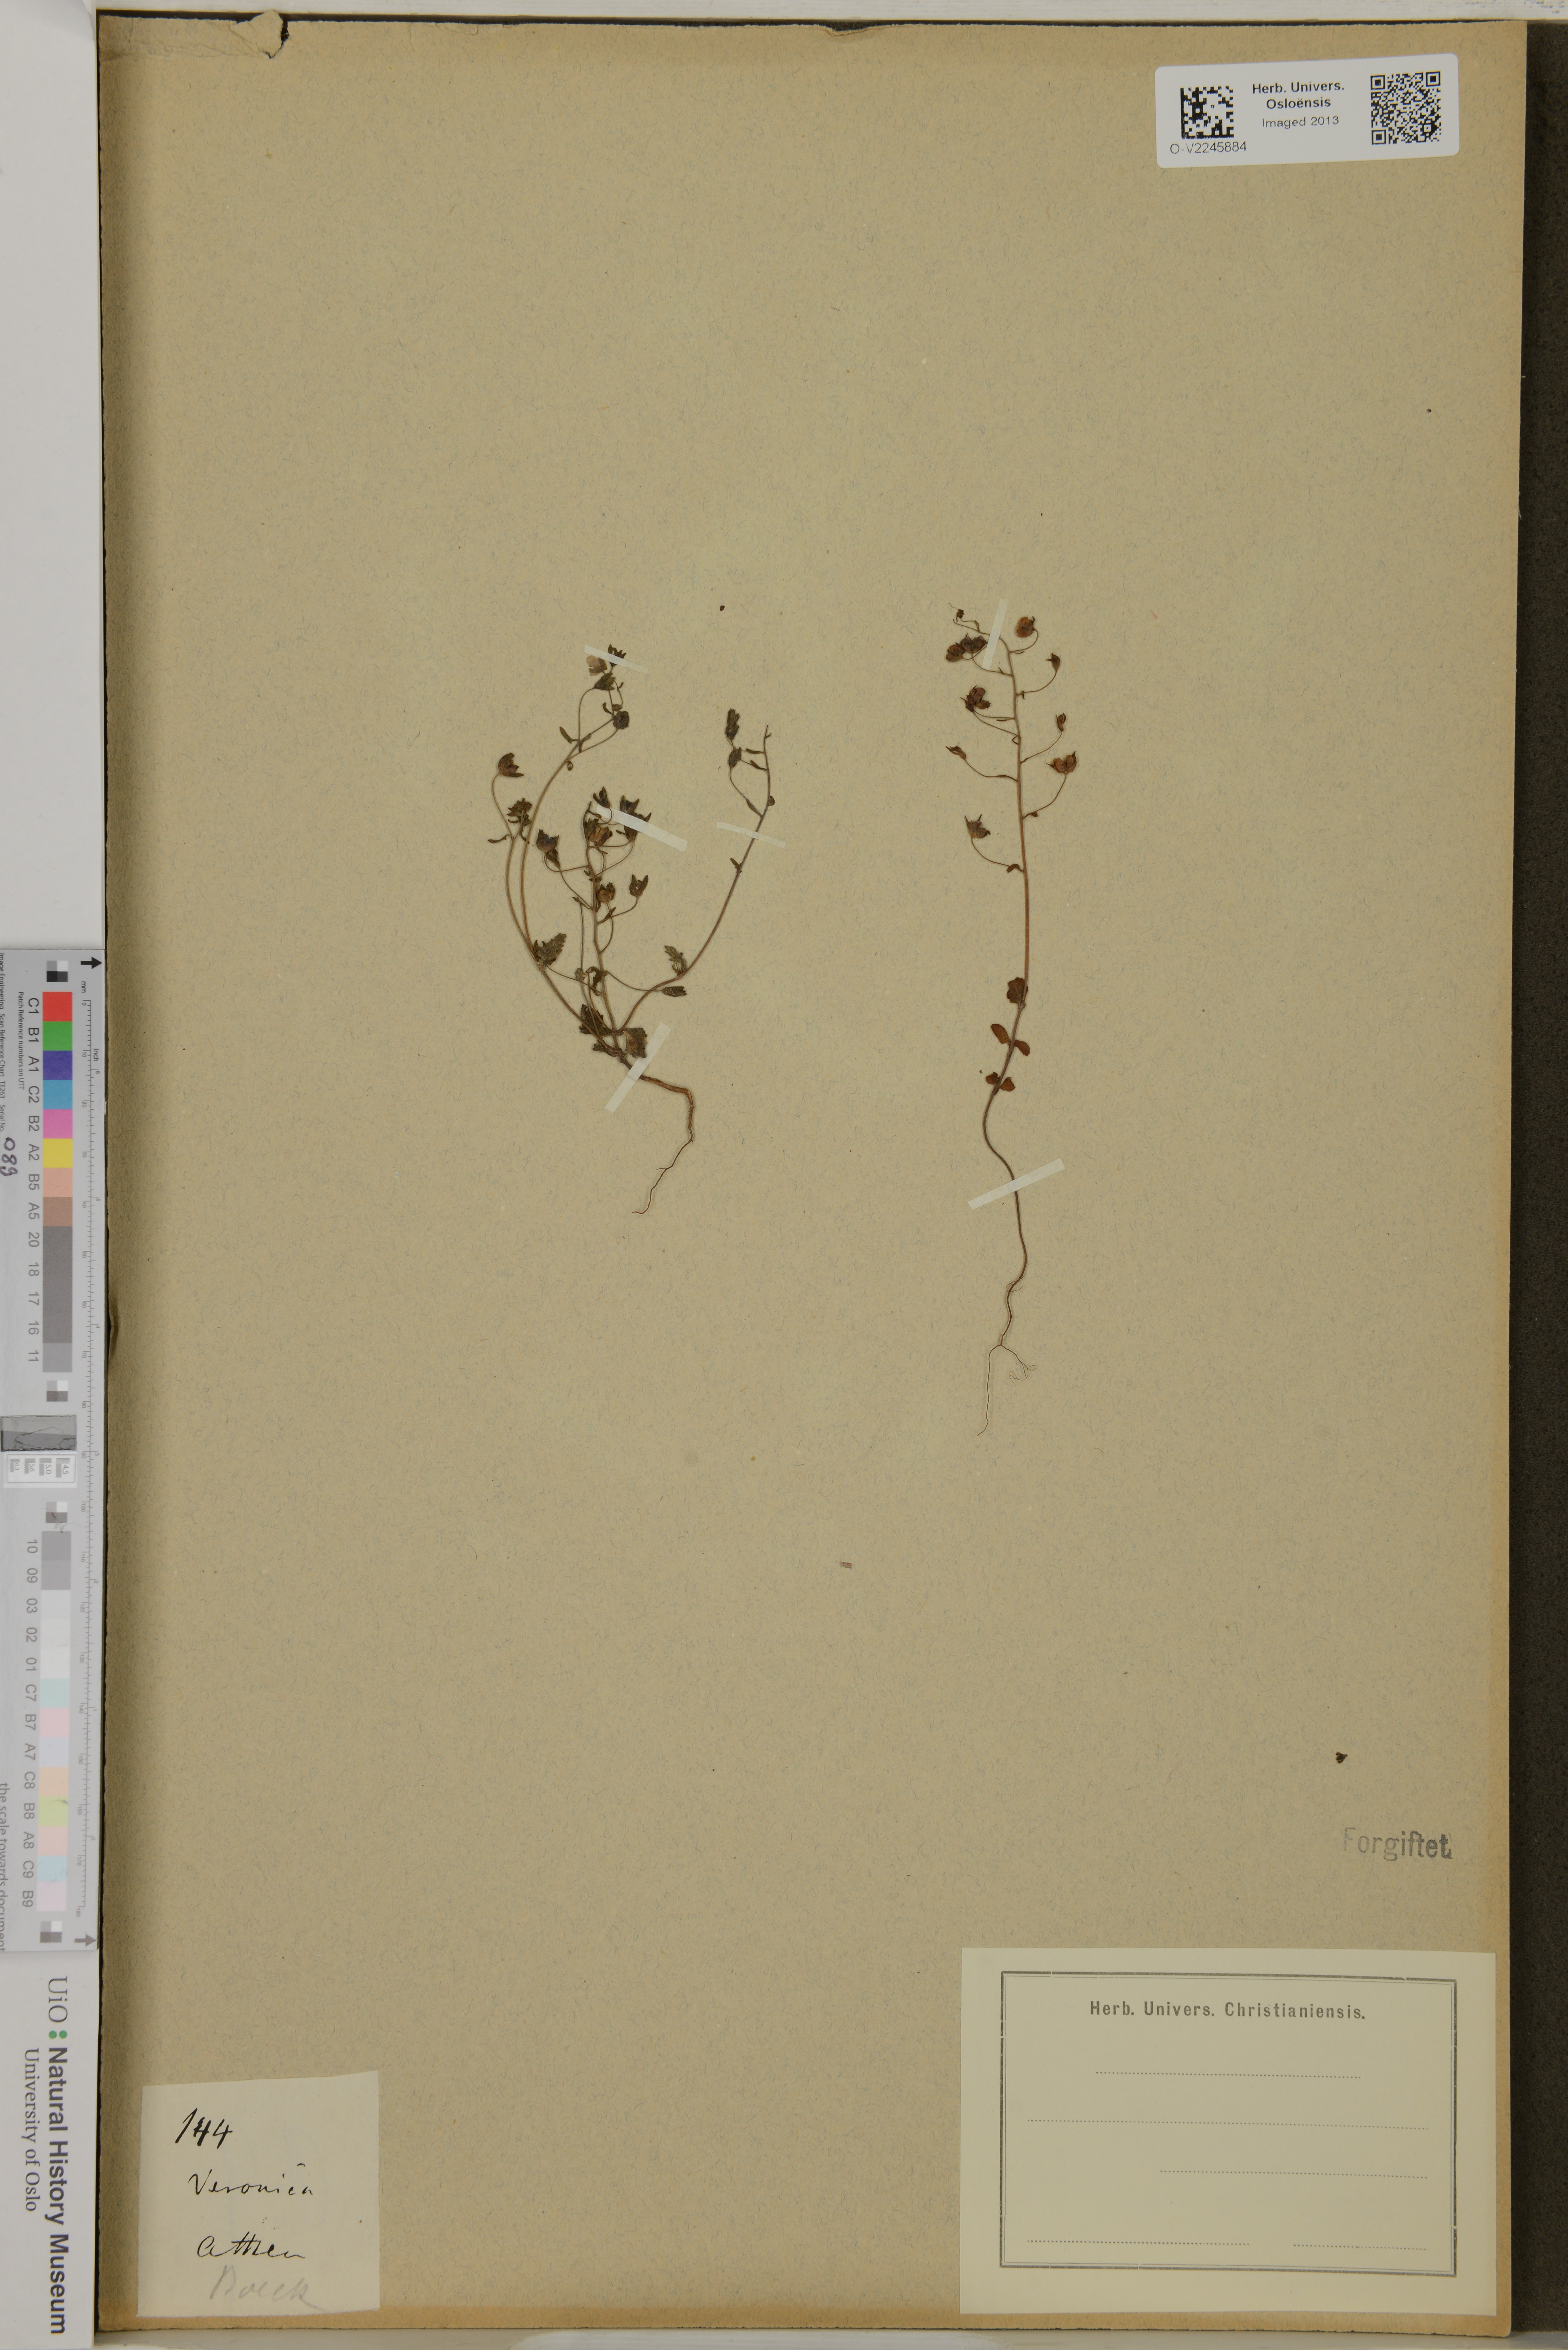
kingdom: Plantae
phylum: Tracheophyta
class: Magnoliopsida
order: Lamiales
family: Plantaginaceae
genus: Veronica
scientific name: Veronica
